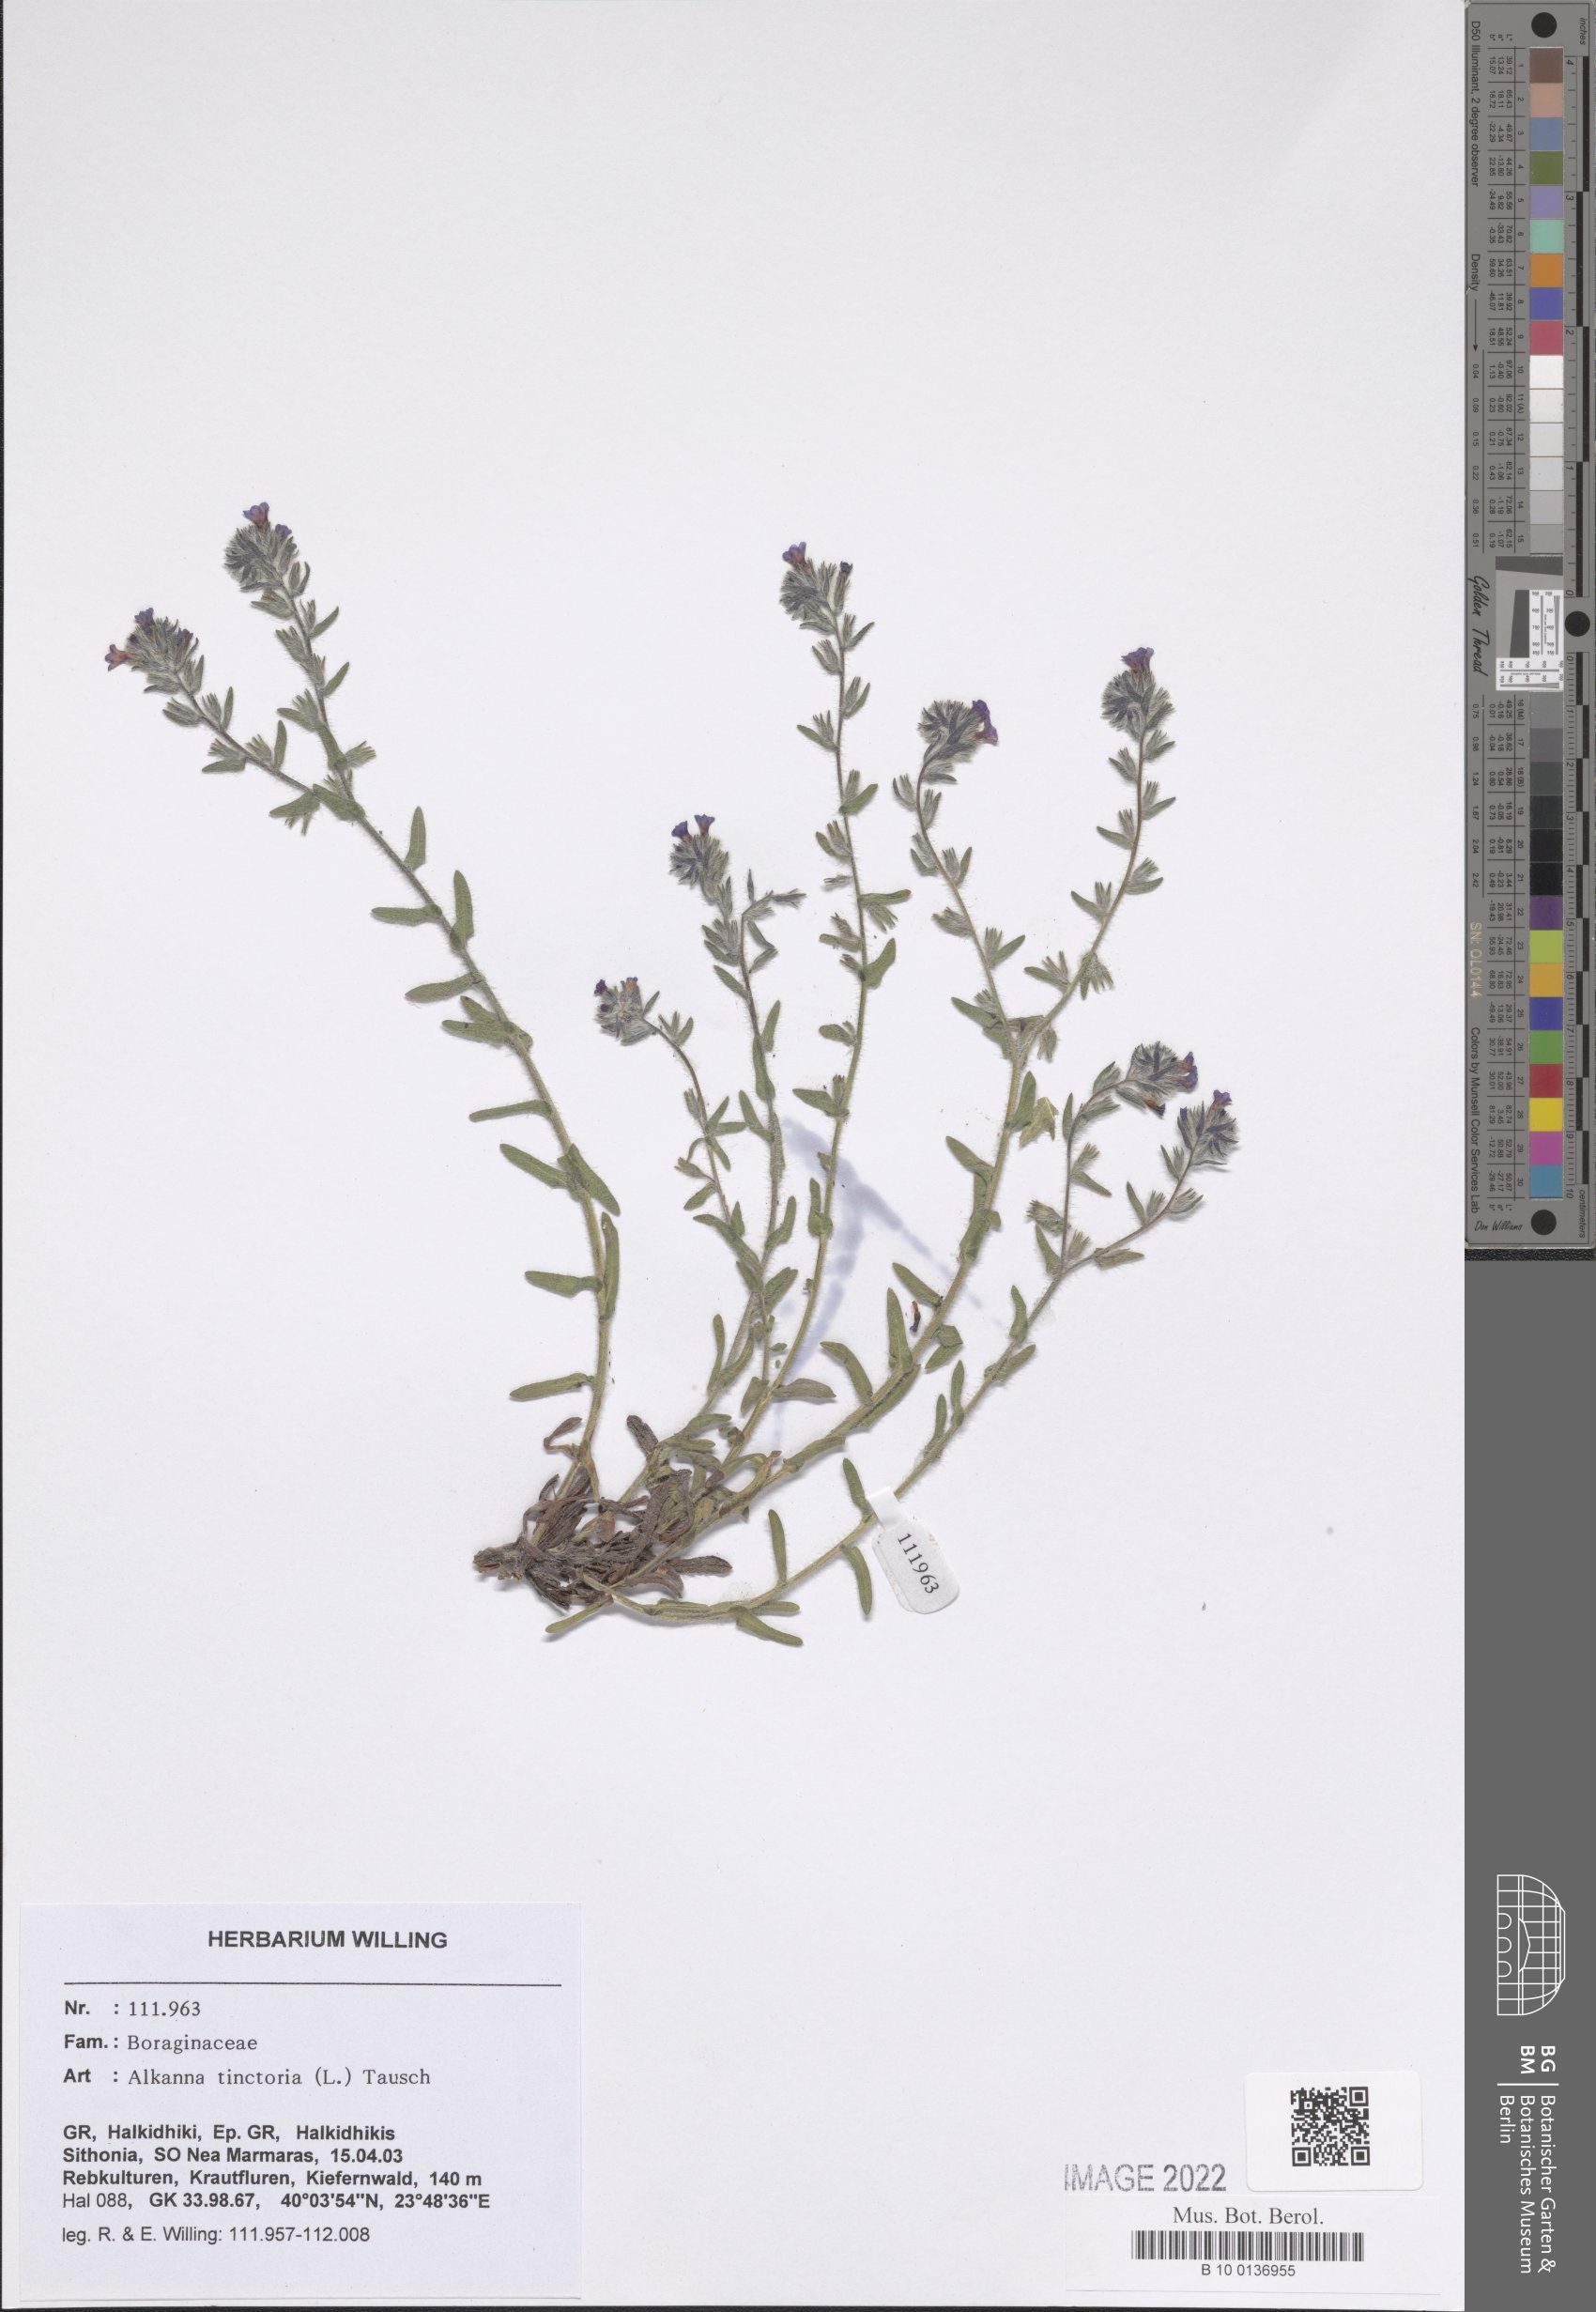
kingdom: Plantae
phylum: Tracheophyta
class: Magnoliopsida
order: Boraginales
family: Boraginaceae
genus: Alkanna
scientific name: Alkanna tinctoria
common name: Dyer's-alkanet
